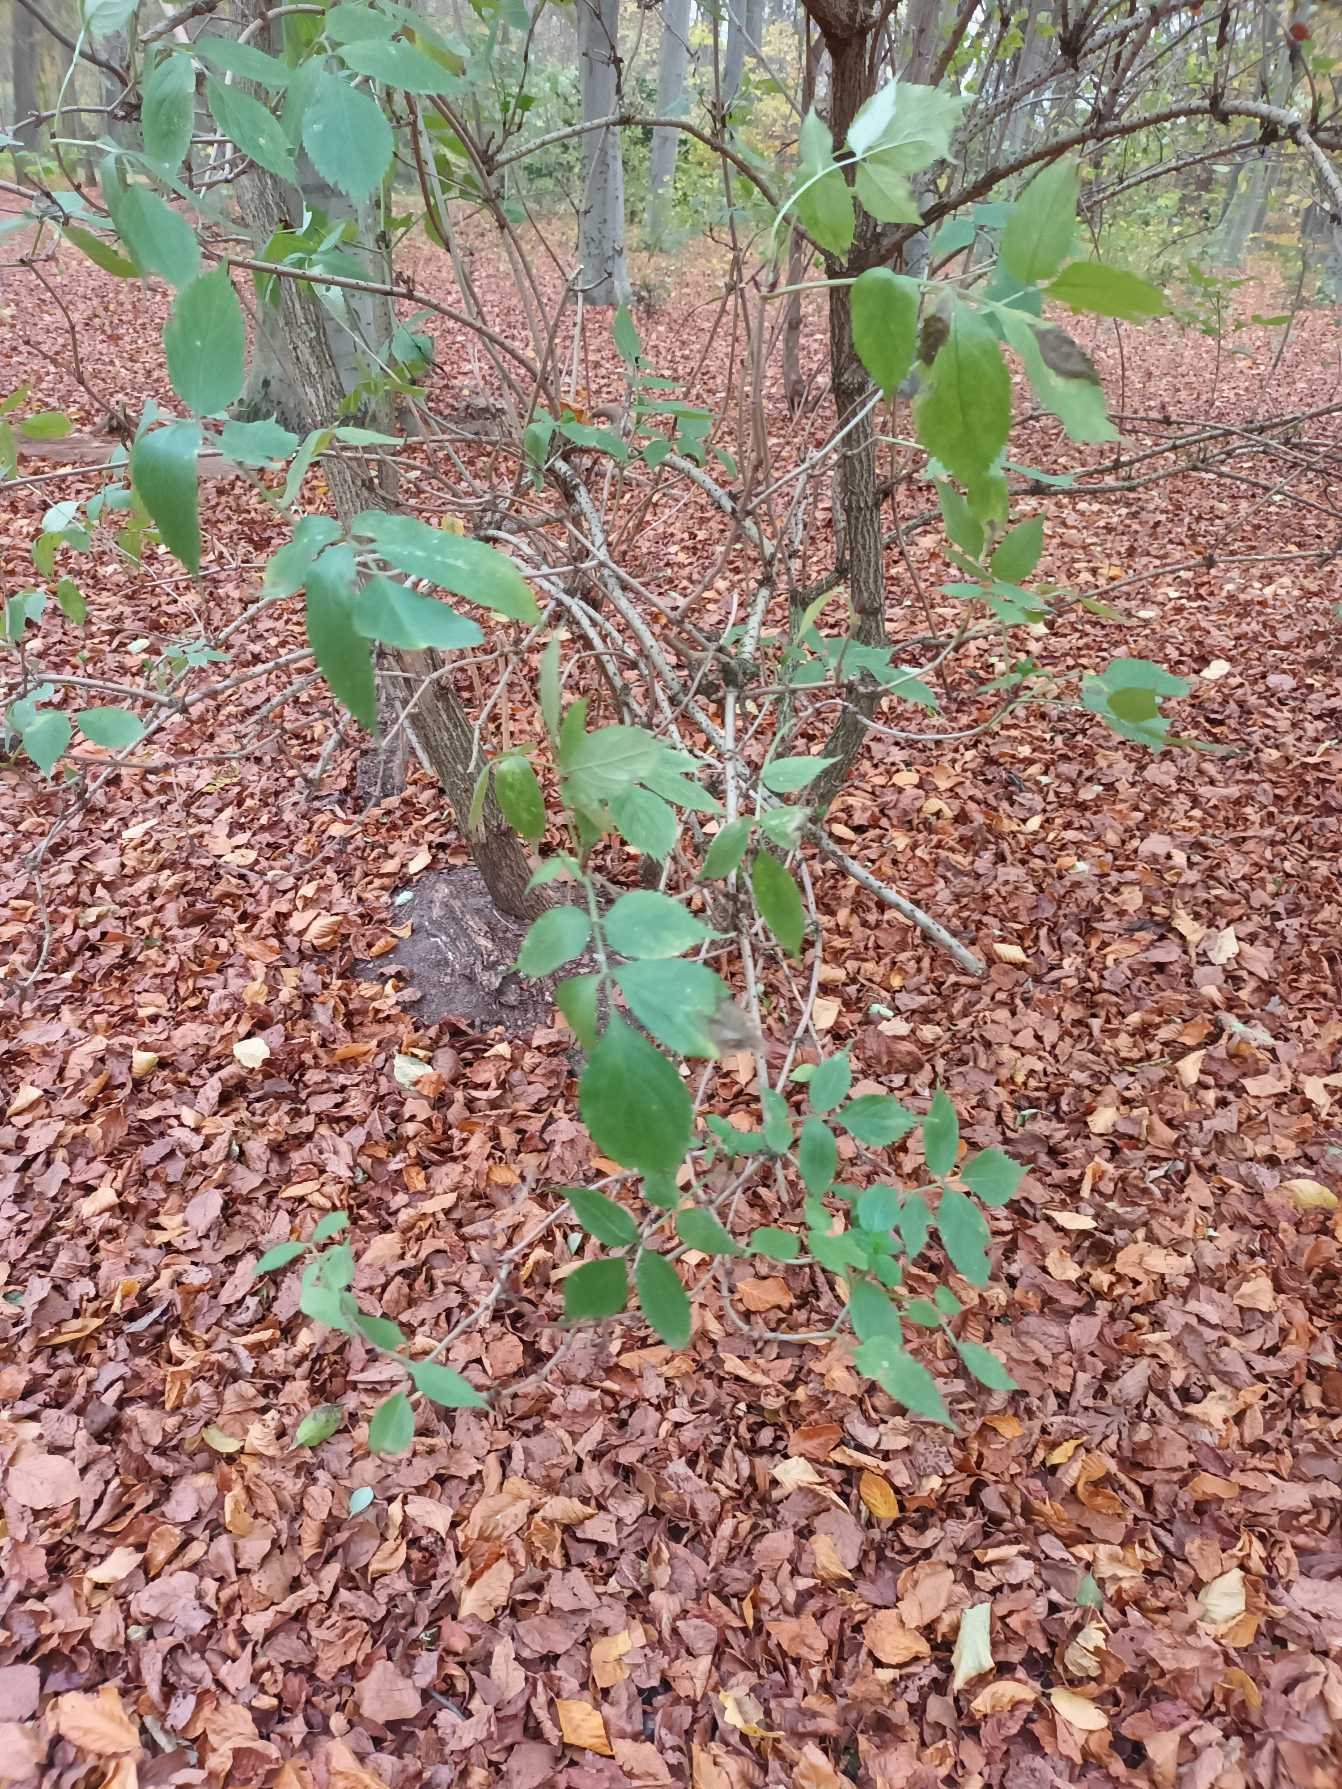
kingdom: Plantae
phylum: Tracheophyta
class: Magnoliopsida
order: Dipsacales
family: Viburnaceae
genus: Sambucus
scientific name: Sambucus nigra
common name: Almindelig hyld
